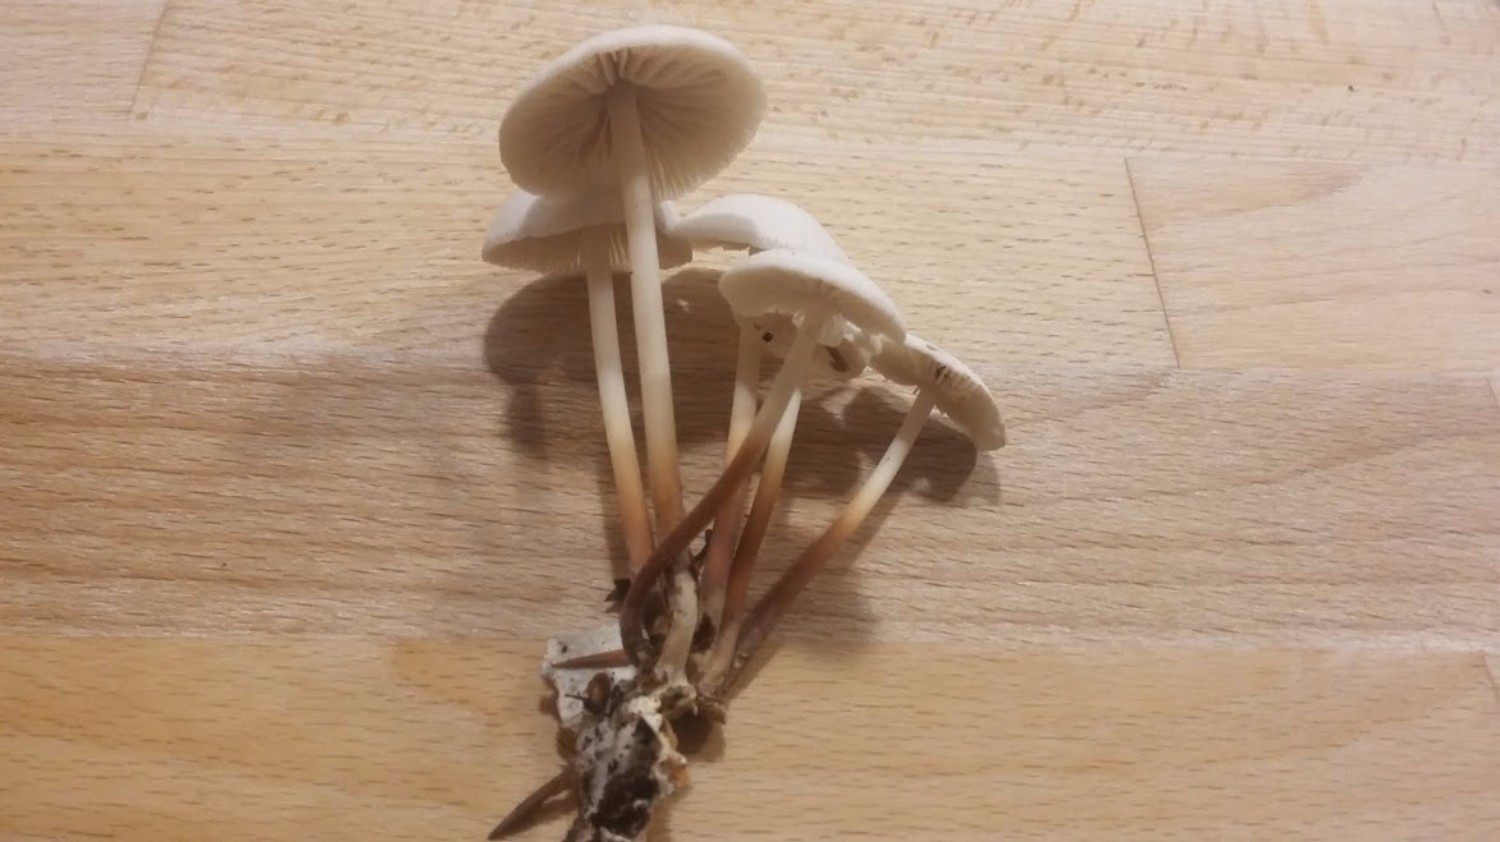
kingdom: Fungi
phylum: Basidiomycota
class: Agaricomycetes
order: Agaricales
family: Marasmiaceae
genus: Marasmius
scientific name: Marasmius wynneae
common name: hvælvet bruskhat
